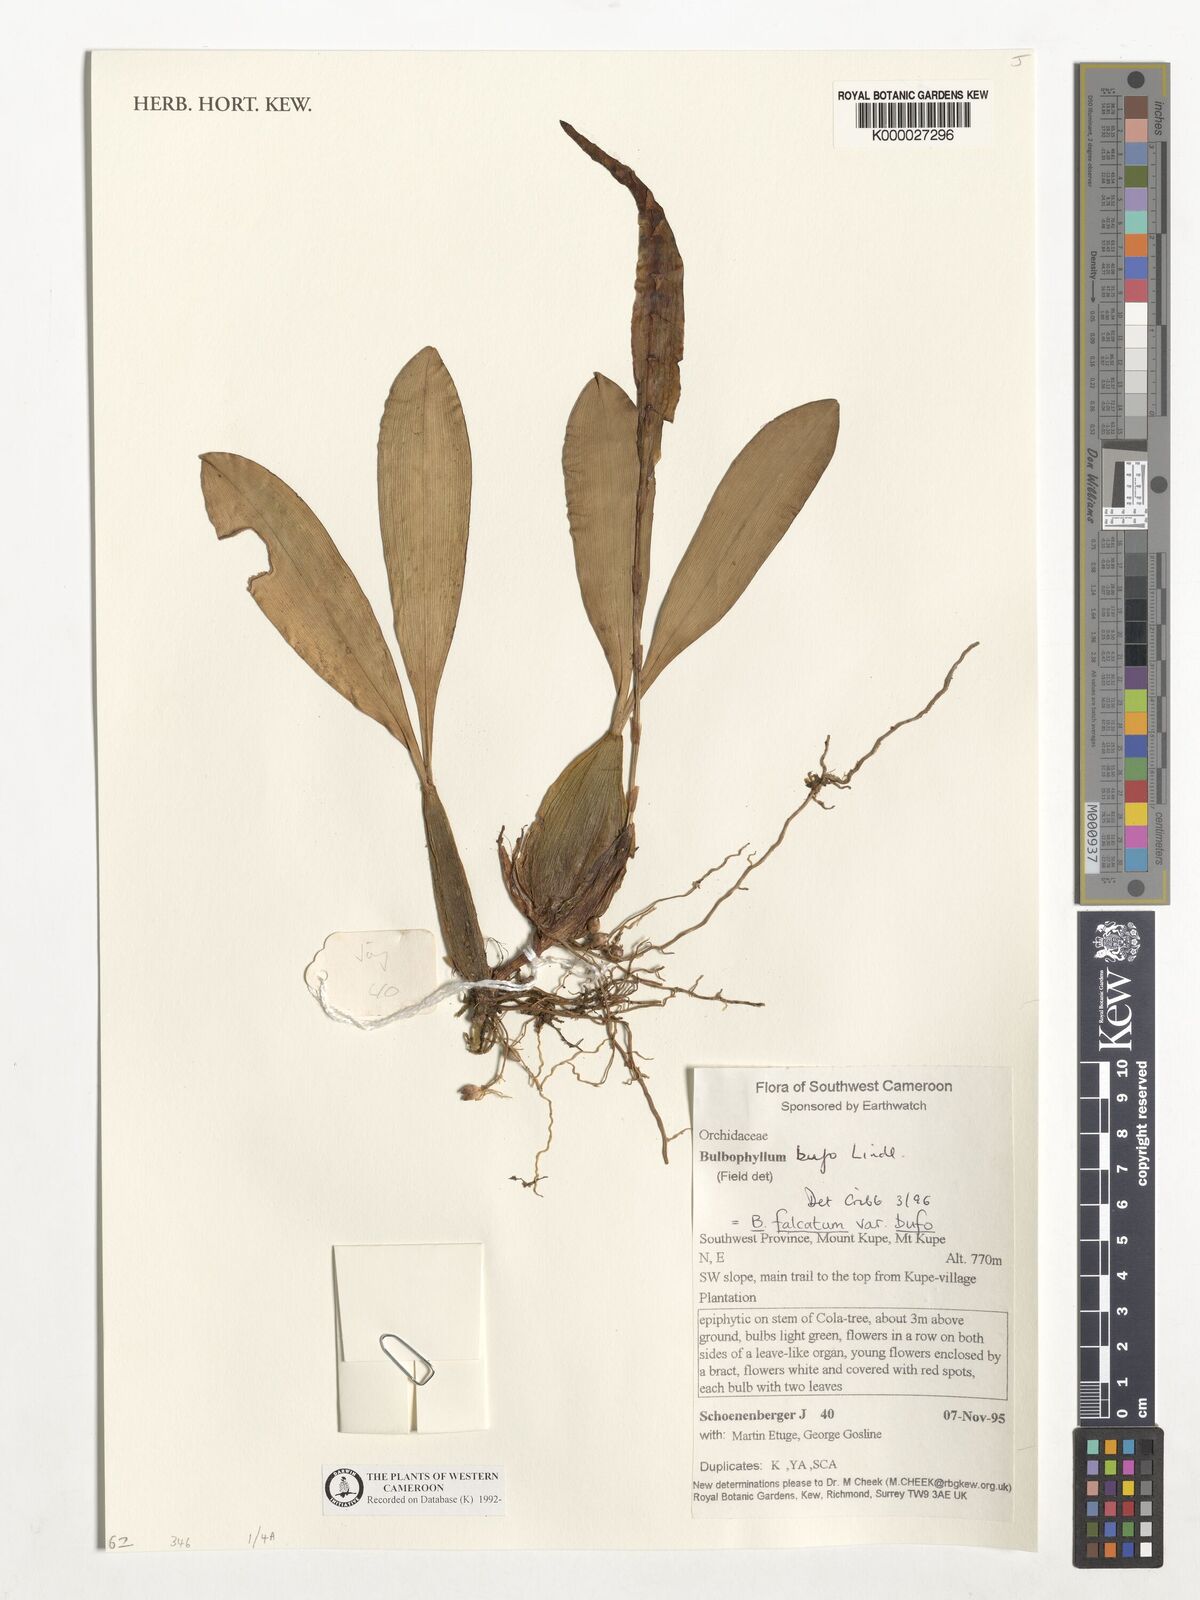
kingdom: Plantae
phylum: Tracheophyta
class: Liliopsida
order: Asparagales
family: Orchidaceae
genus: Bulbophyllum
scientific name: Bulbophyllum falcatum
